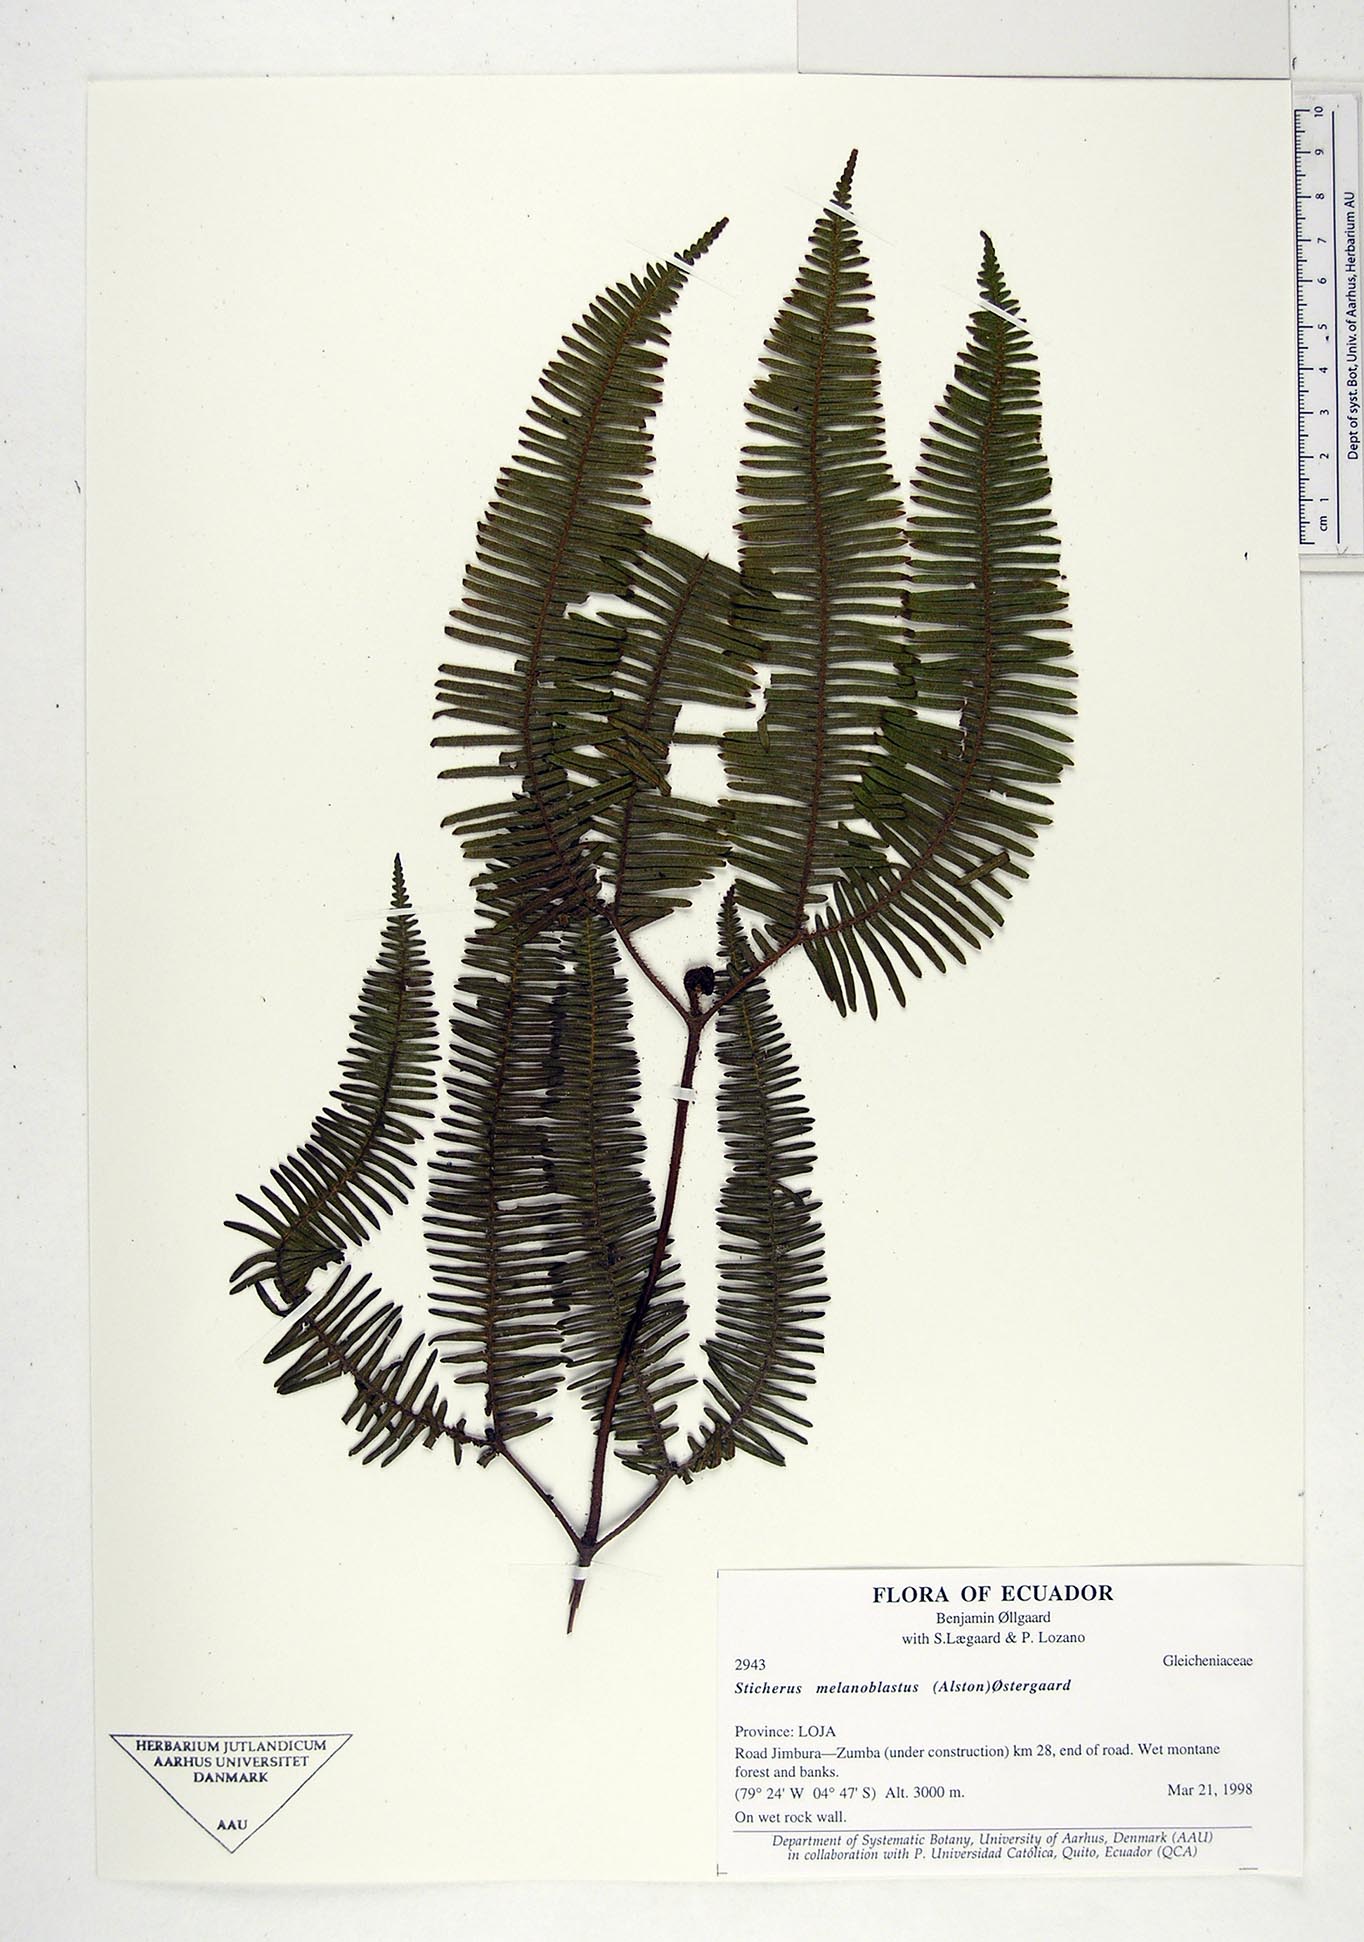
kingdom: Plantae
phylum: Tracheophyta
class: Polypodiopsida
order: Gleicheniales
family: Gleicheniaceae
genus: Sticherus
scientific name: Sticherus melanoblastus
